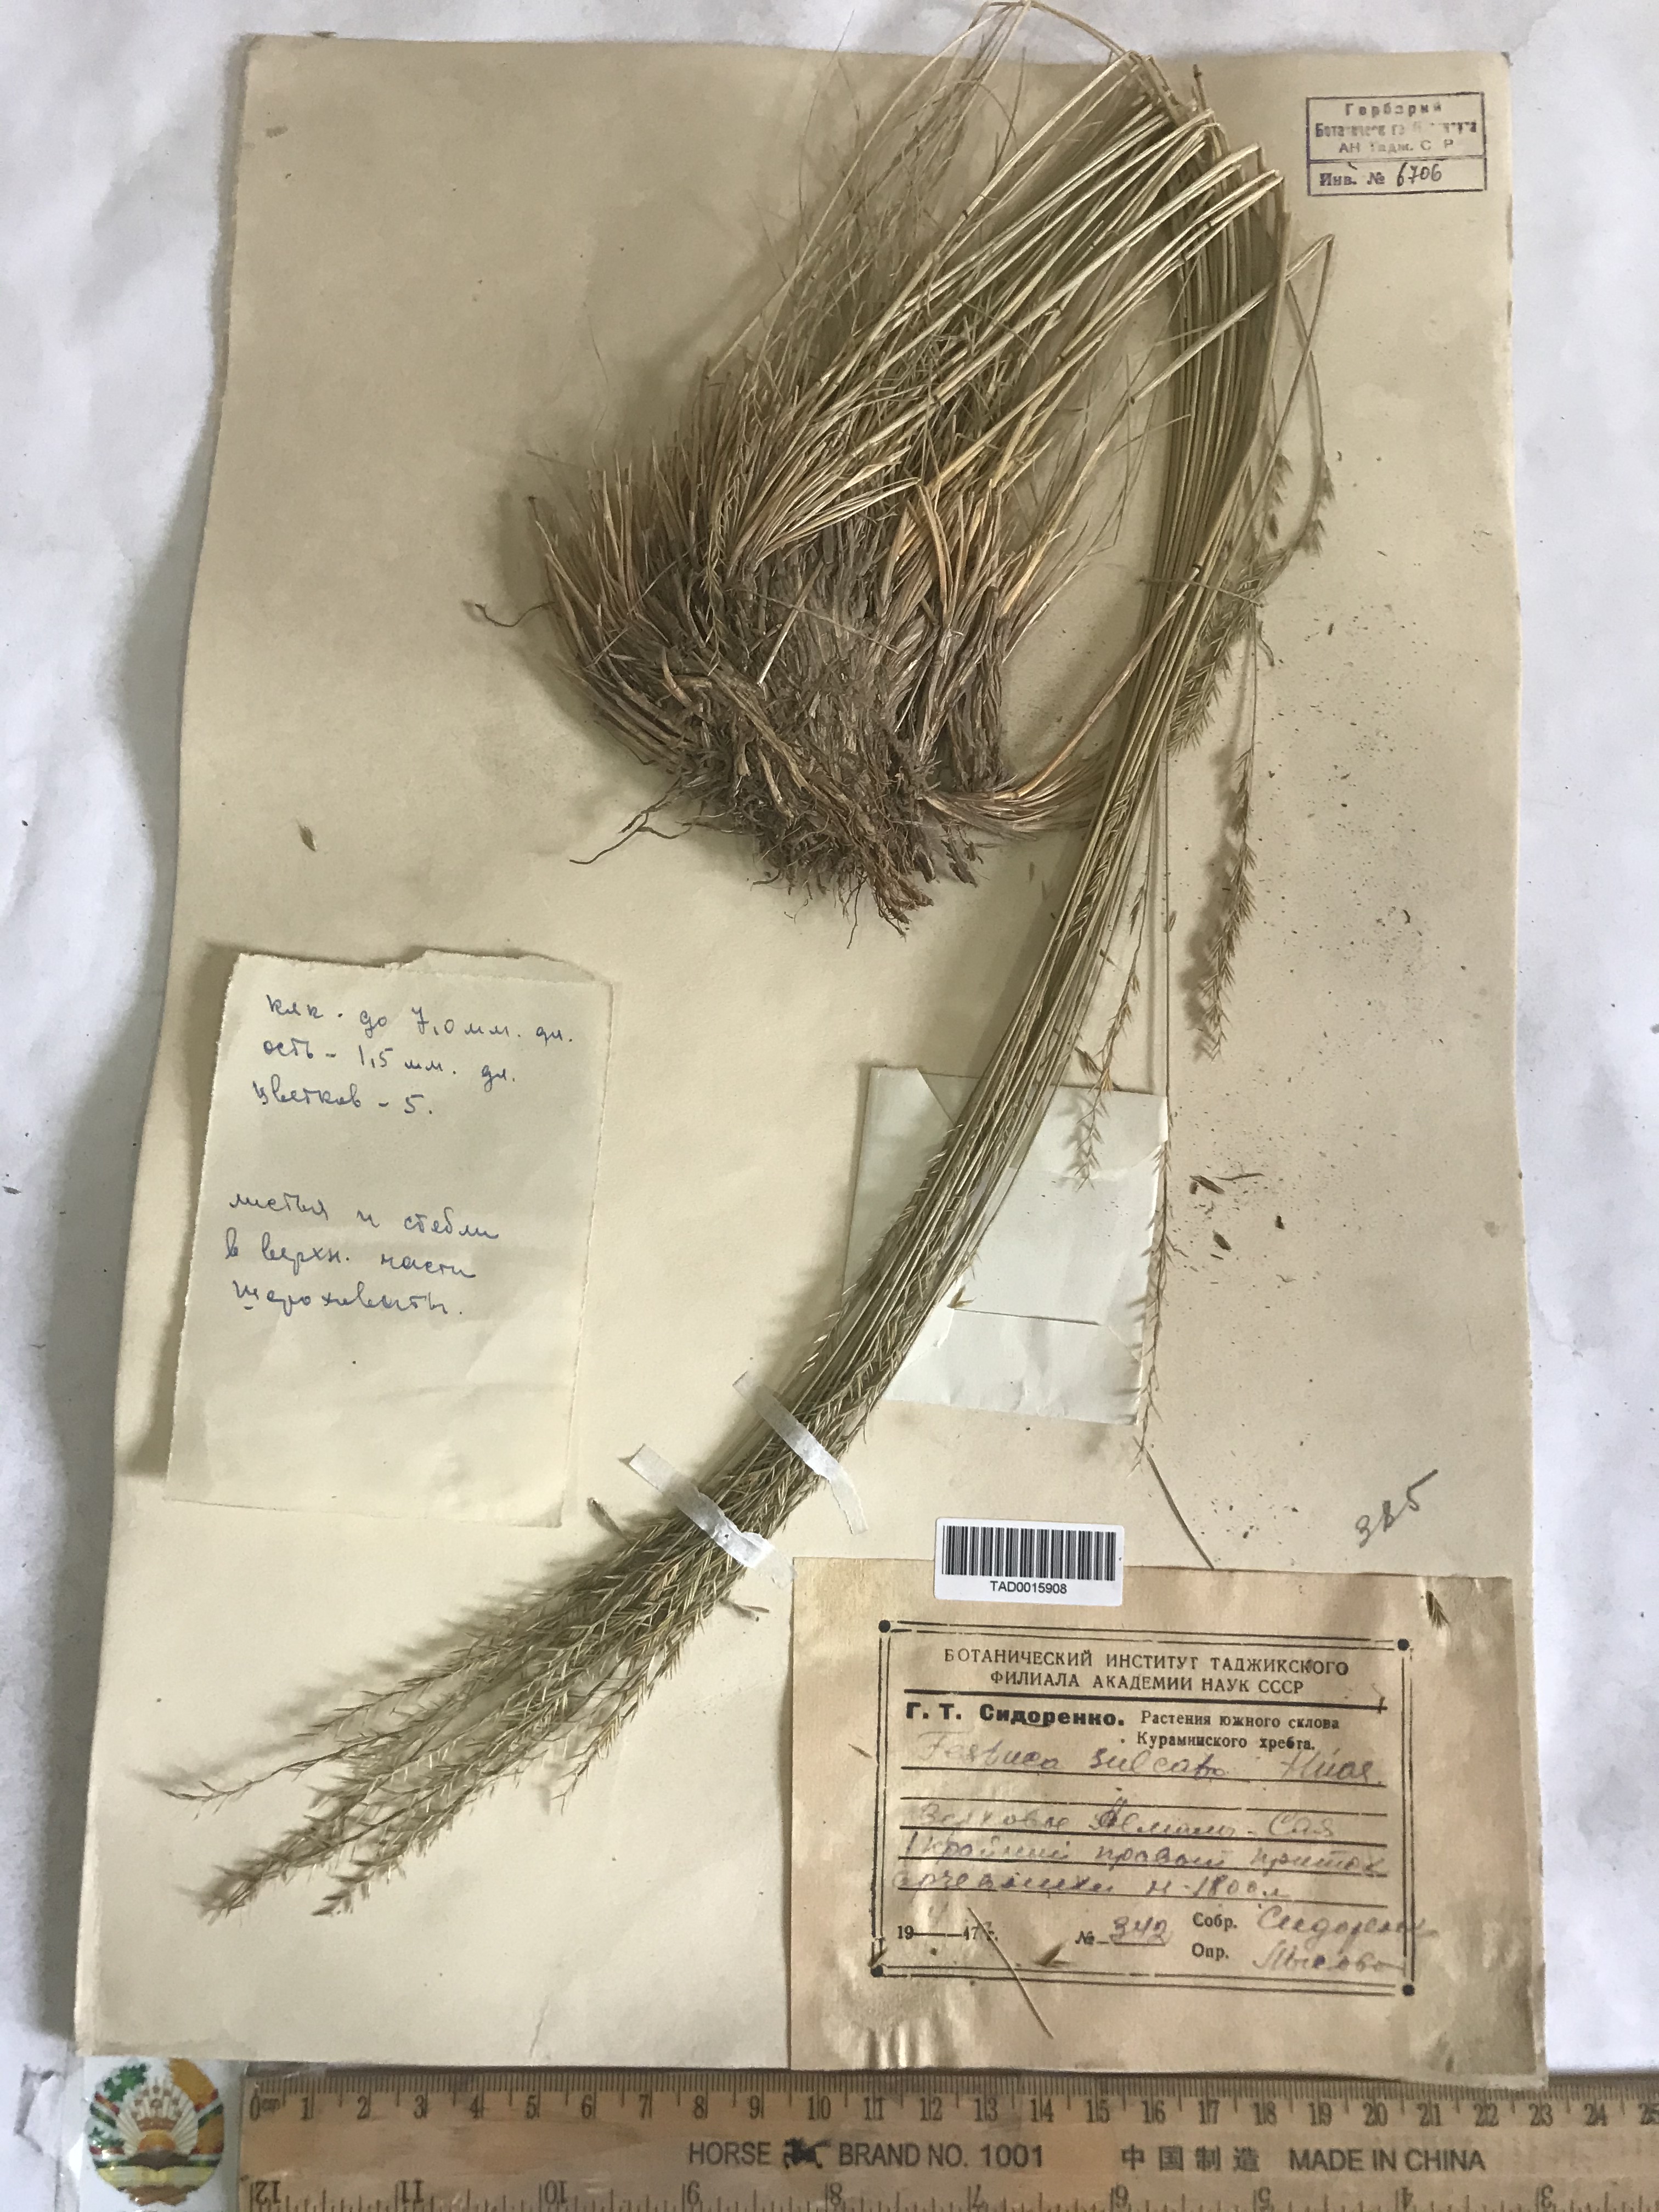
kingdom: Plantae
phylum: Tracheophyta
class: Liliopsida
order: Poales
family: Poaceae
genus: Festuca
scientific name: Festuca sulcata
